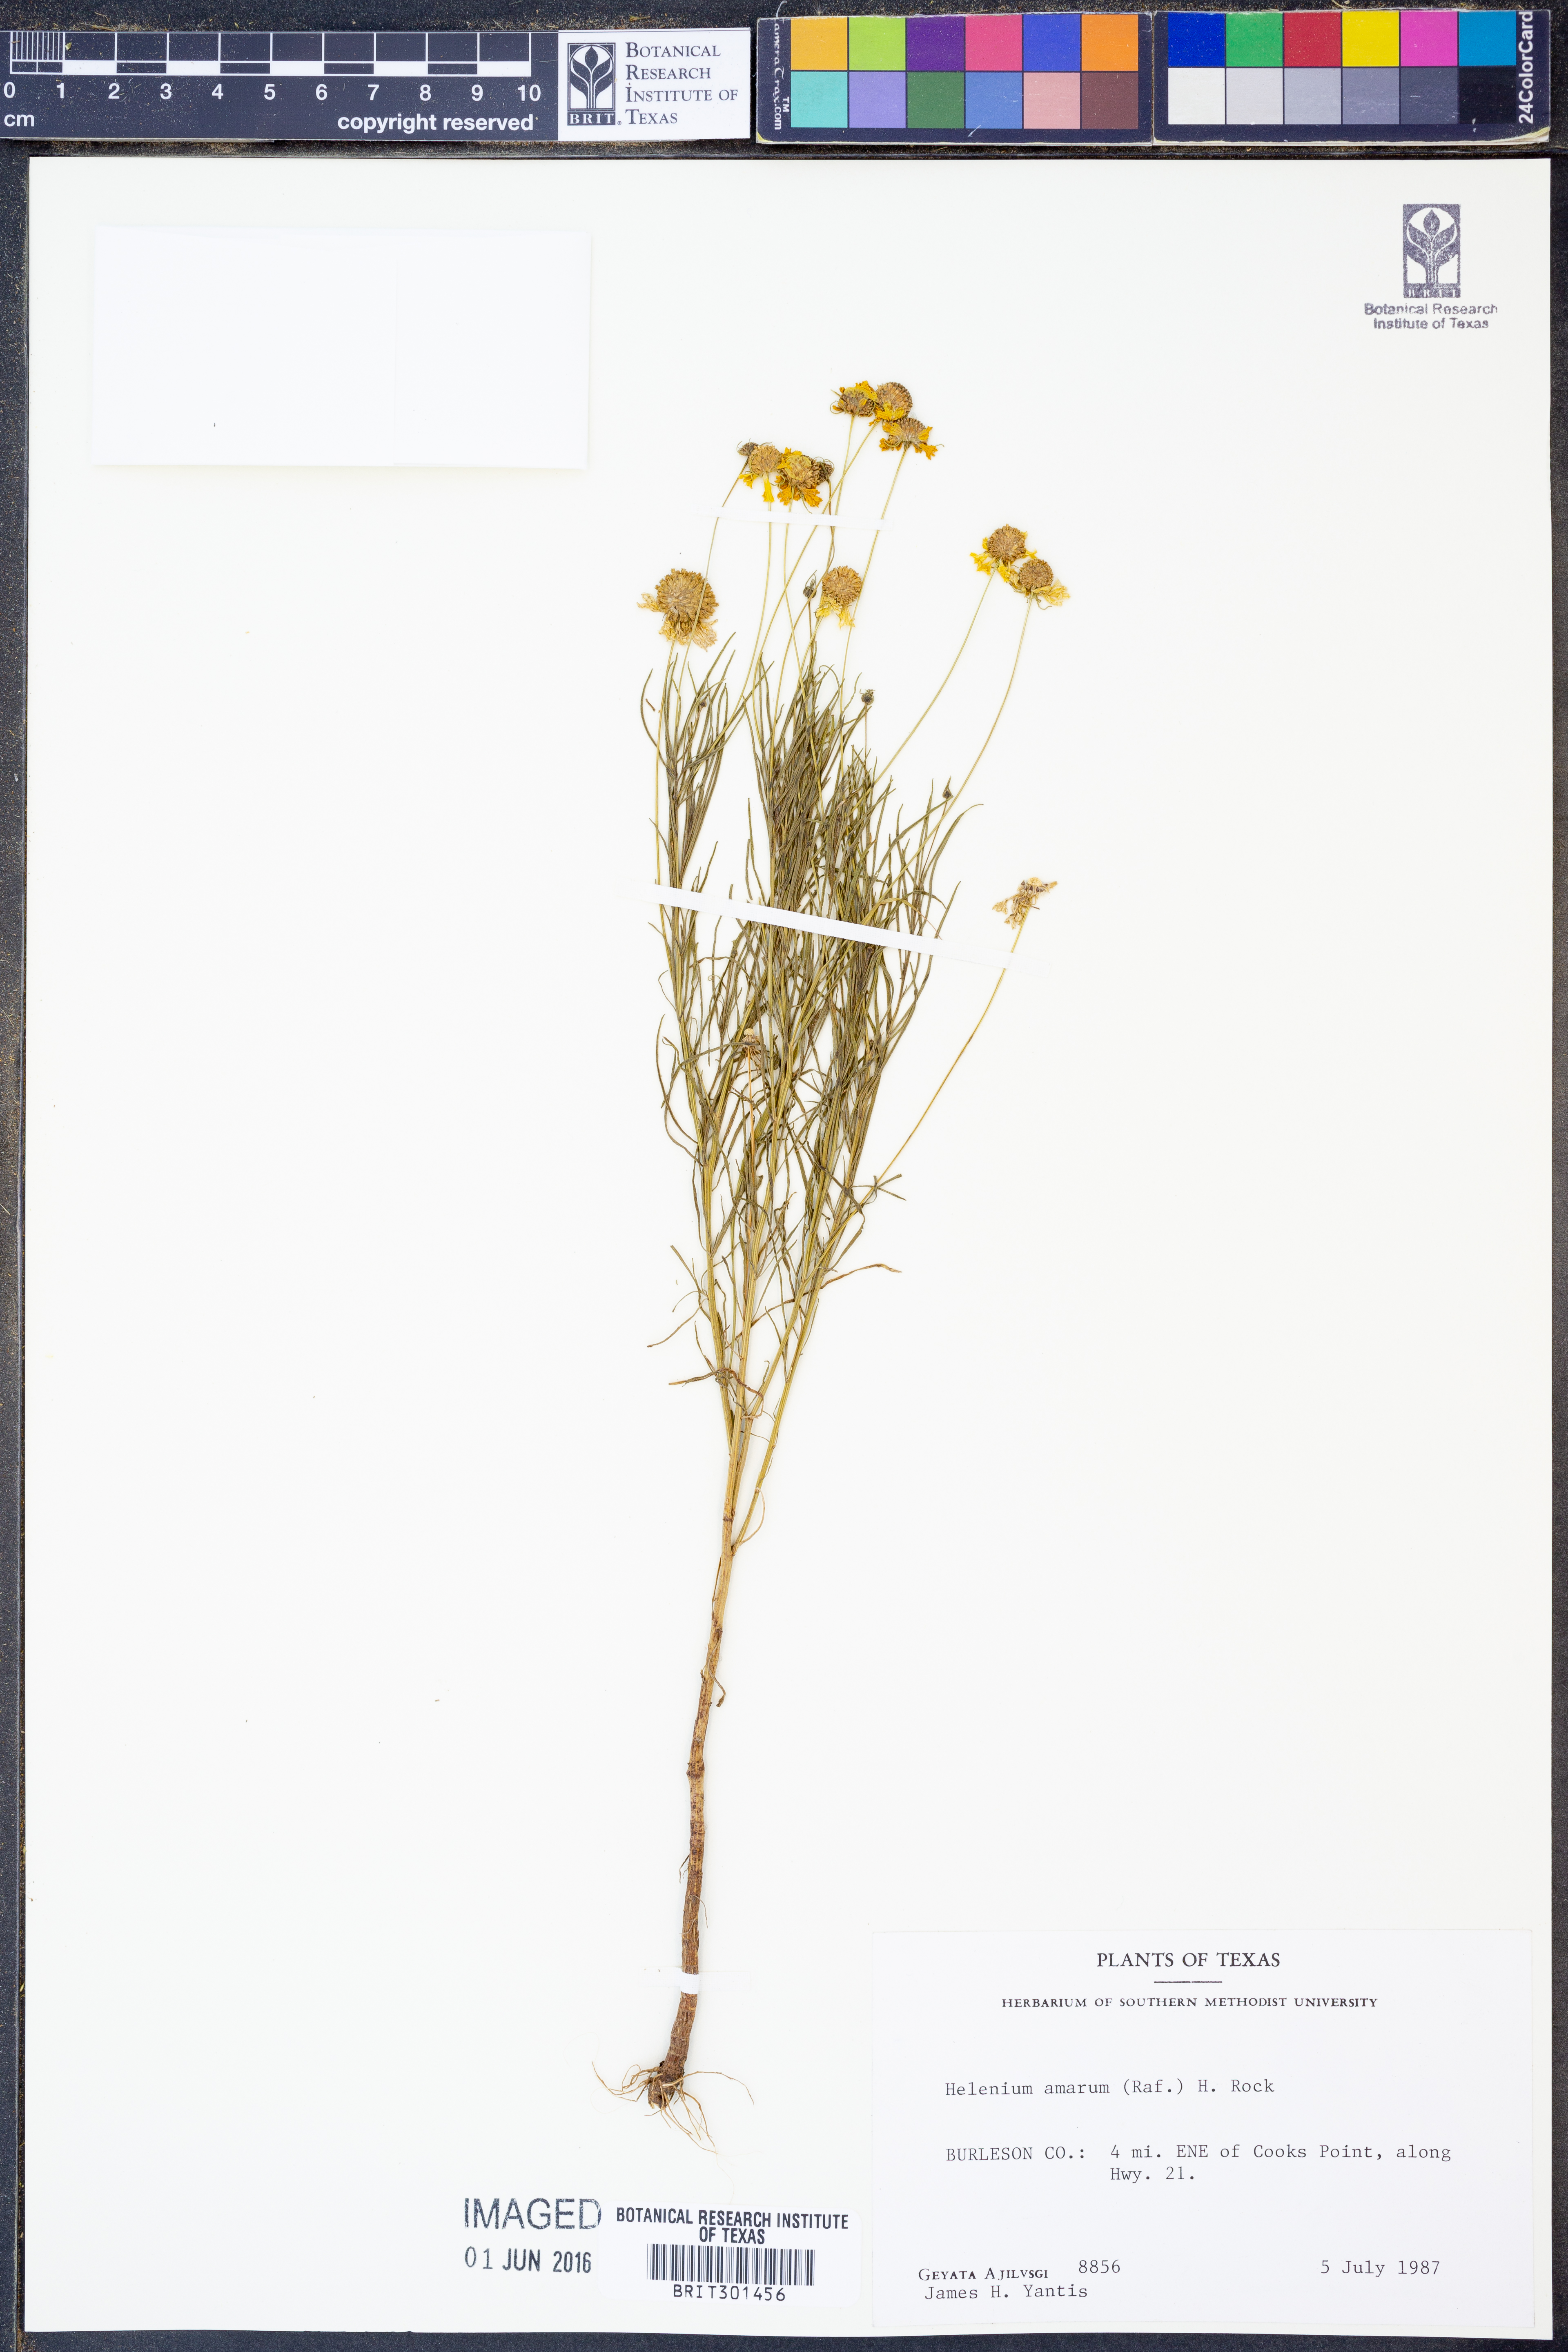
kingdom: Plantae
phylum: Tracheophyta
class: Magnoliopsida
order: Asterales
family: Asteraceae
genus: Helenium
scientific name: Helenium amarum
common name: Bitter sneezeweed
